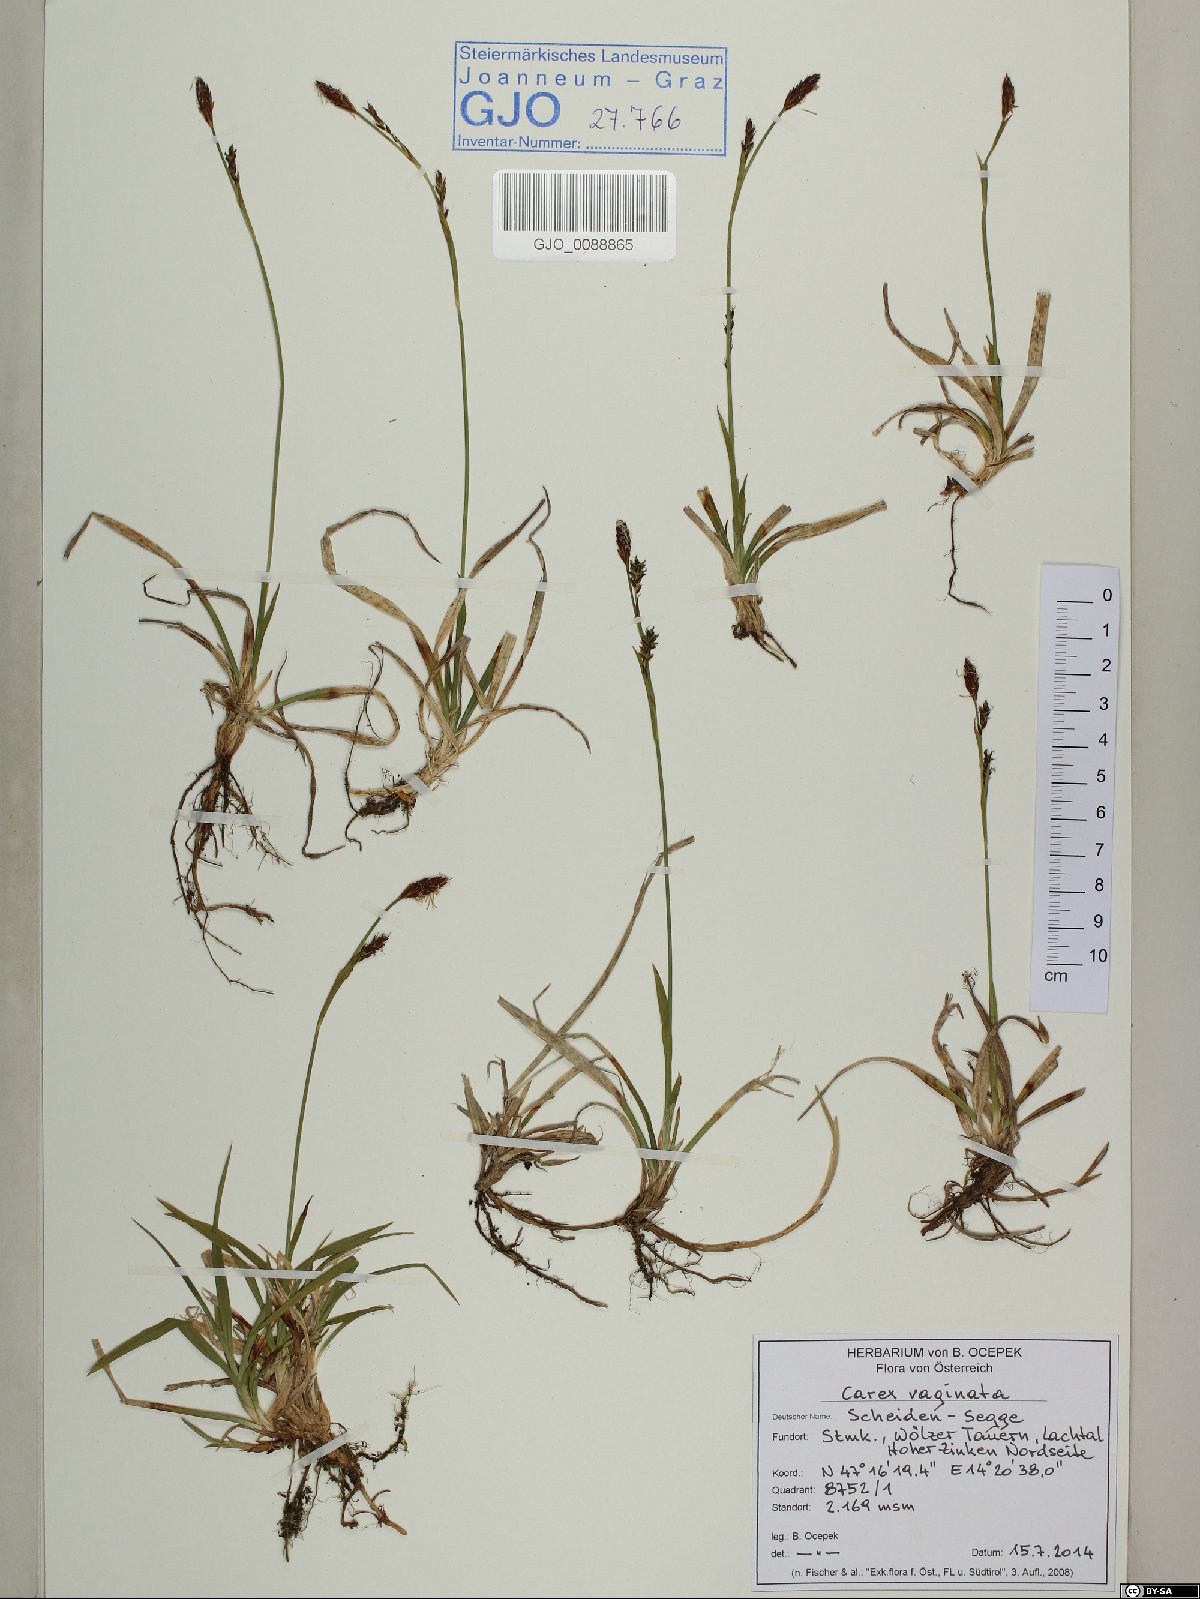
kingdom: Plantae
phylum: Tracheophyta
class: Liliopsida
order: Poales
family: Cyperaceae
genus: Carex
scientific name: Carex vaginata
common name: Sheathed sedge
